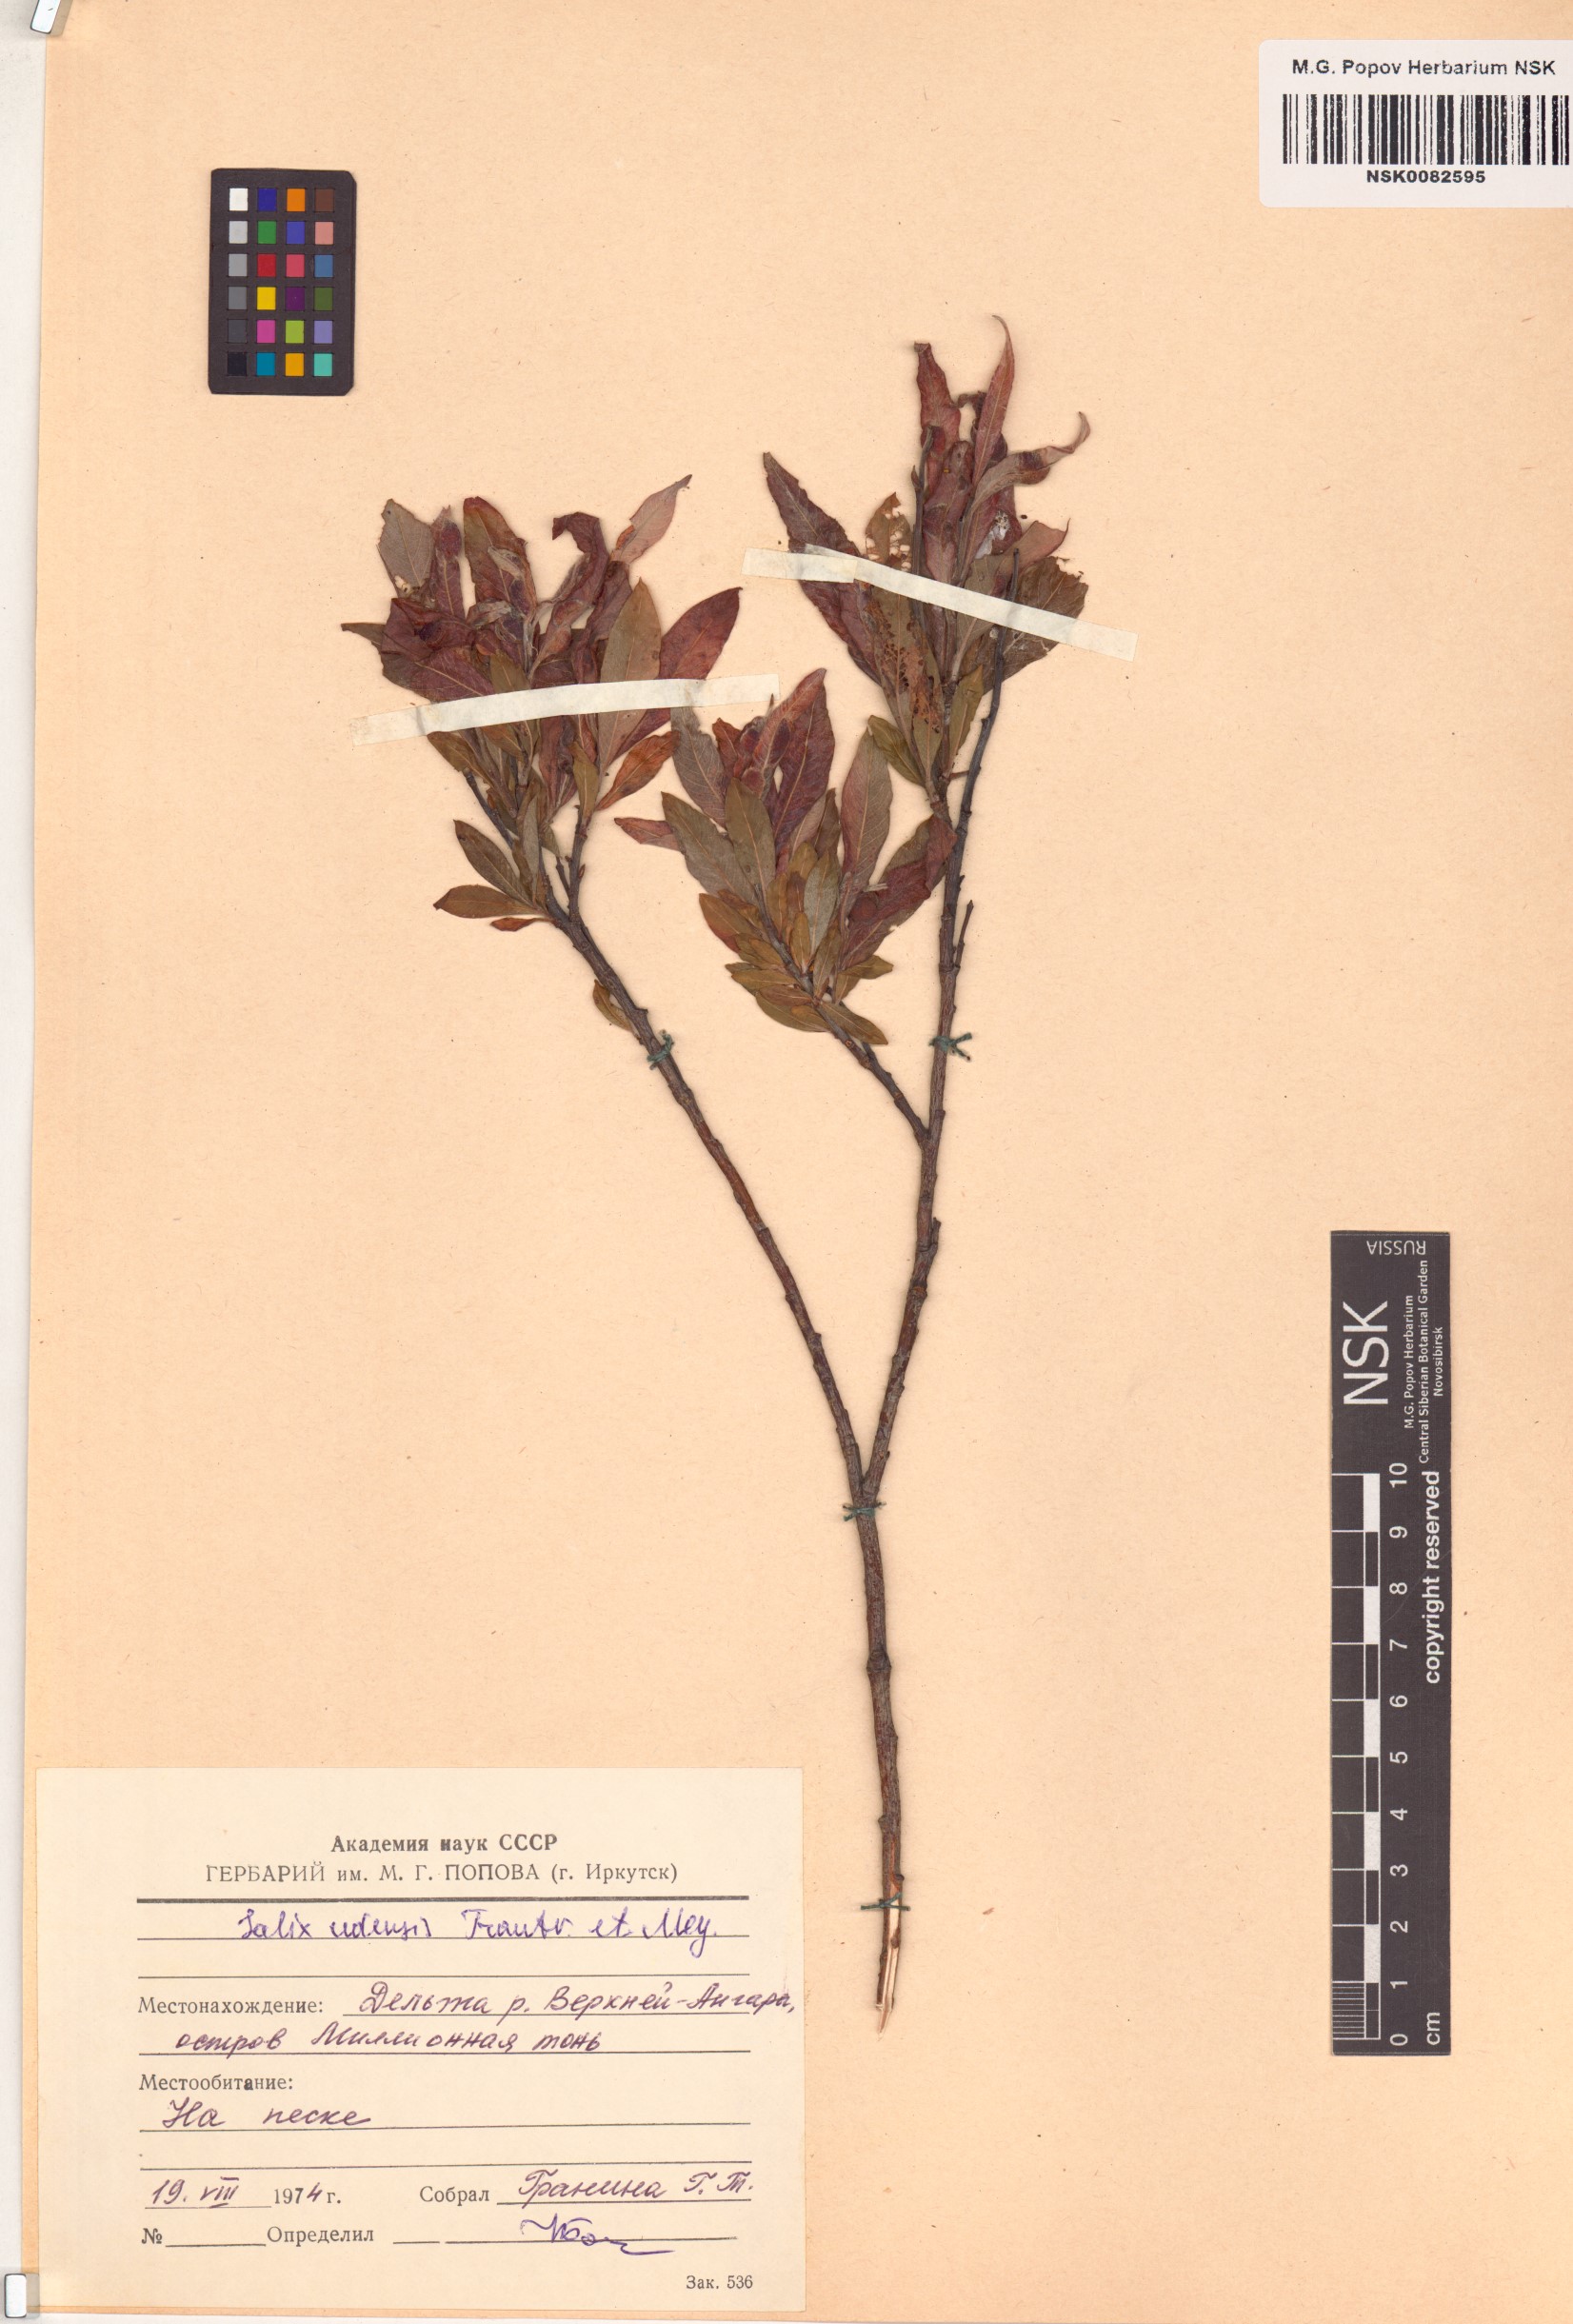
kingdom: Plantae
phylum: Tracheophyta
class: Magnoliopsida
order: Malpighiales
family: Salicaceae
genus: Salix
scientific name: Salix udensis
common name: Sachalin willow
